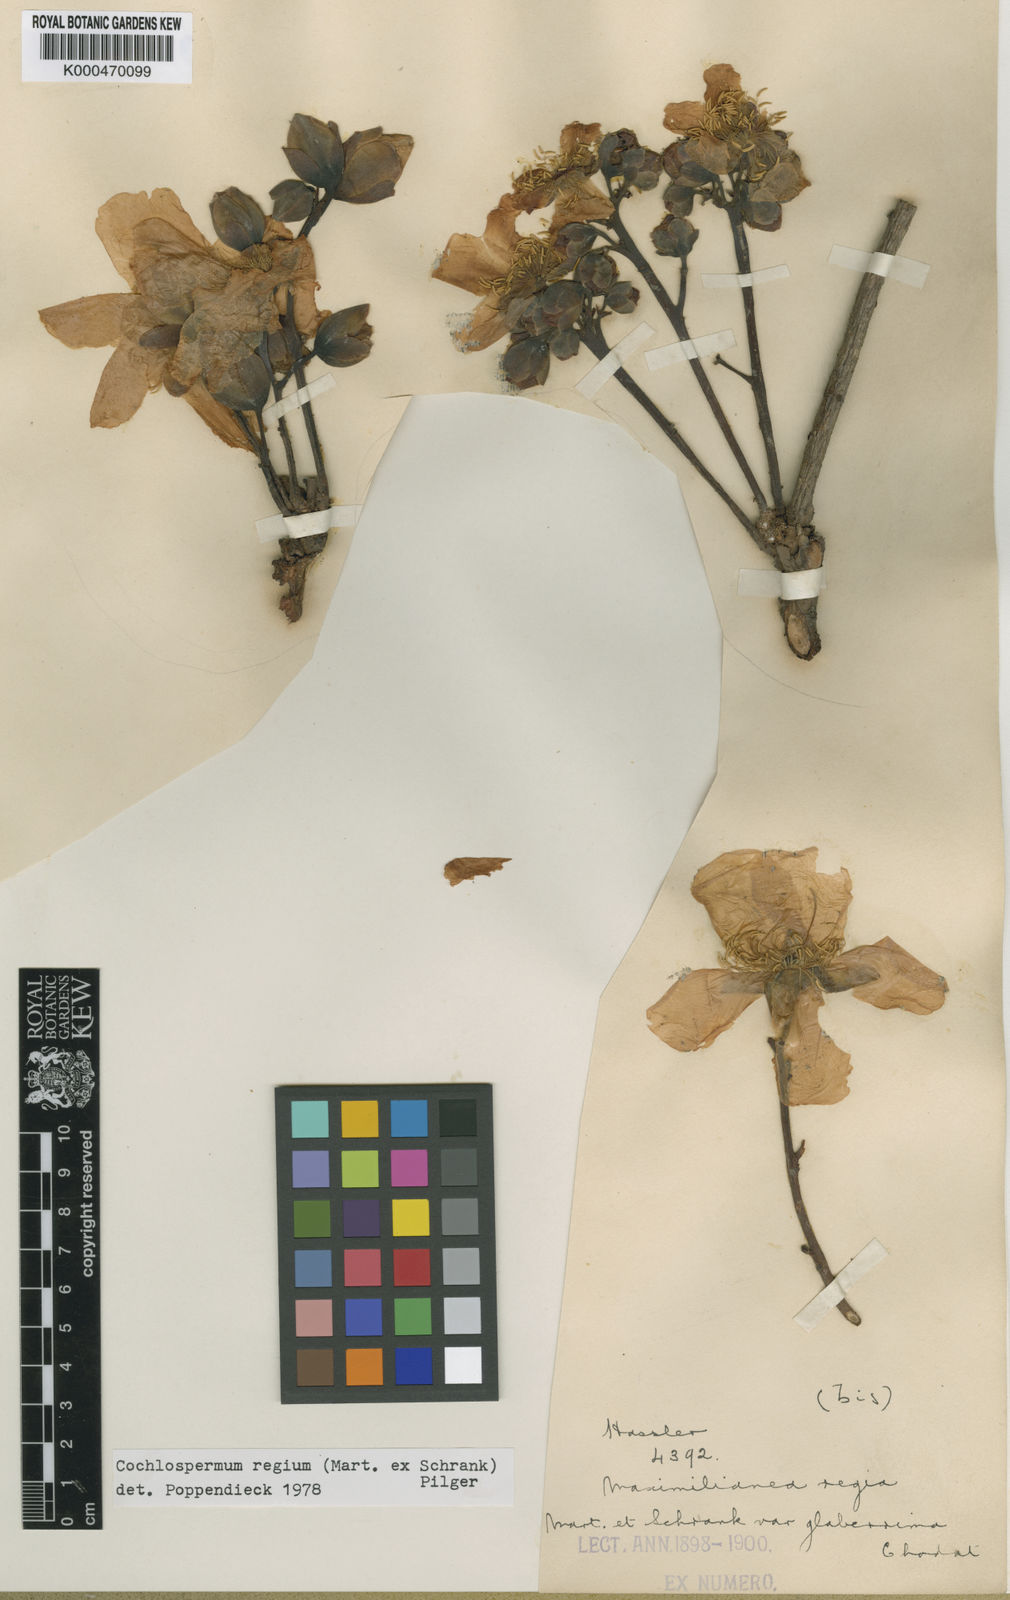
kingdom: Plantae
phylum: Tracheophyta
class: Magnoliopsida
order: Malvales
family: Cochlospermaceae
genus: Cochlospermum
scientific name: Cochlospermum regium
